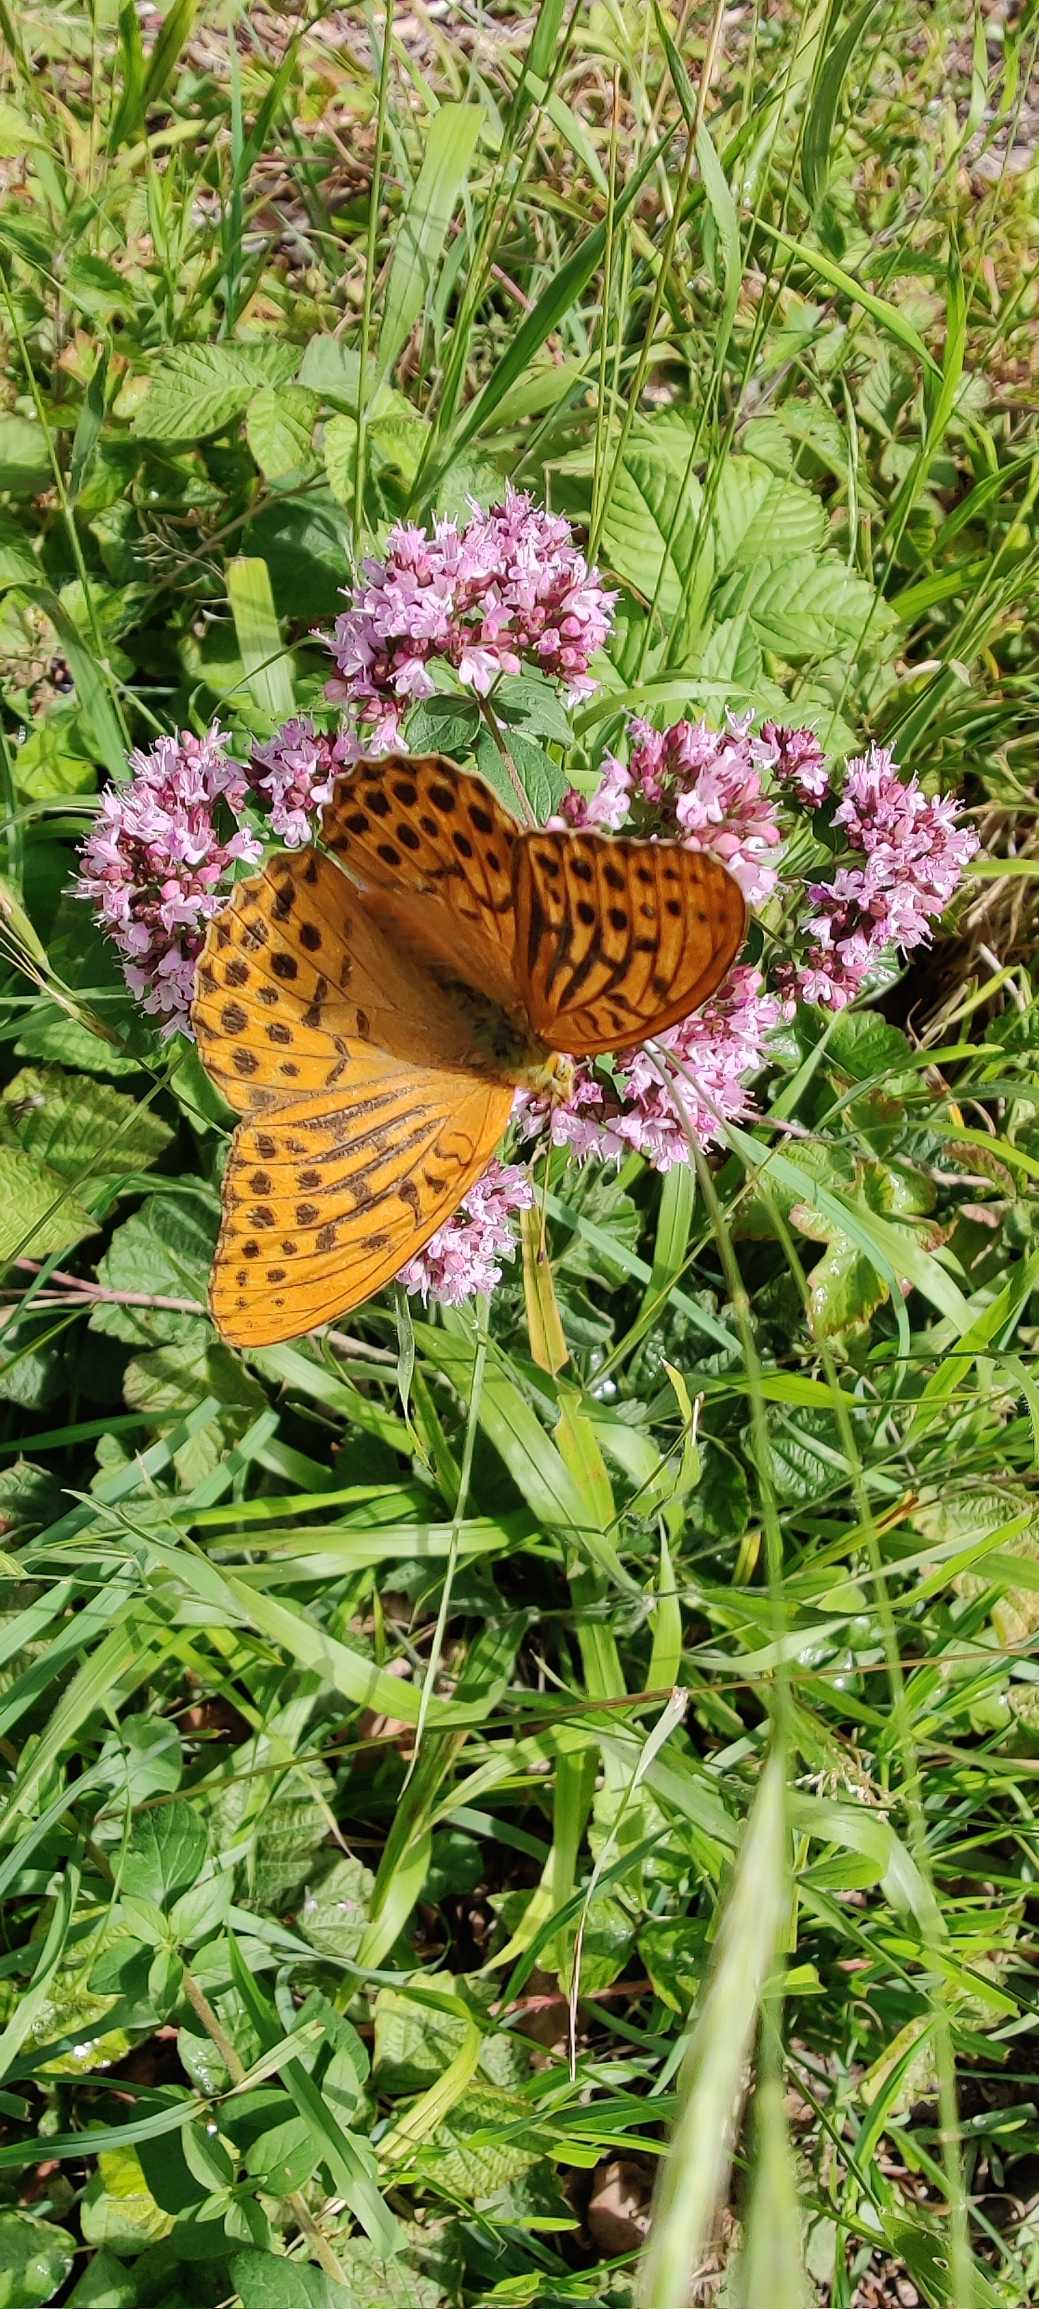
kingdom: Animalia
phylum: Arthropoda
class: Insecta
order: Lepidoptera
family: Nymphalidae
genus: Argynnis
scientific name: Argynnis paphia
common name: Kejserkåbe
